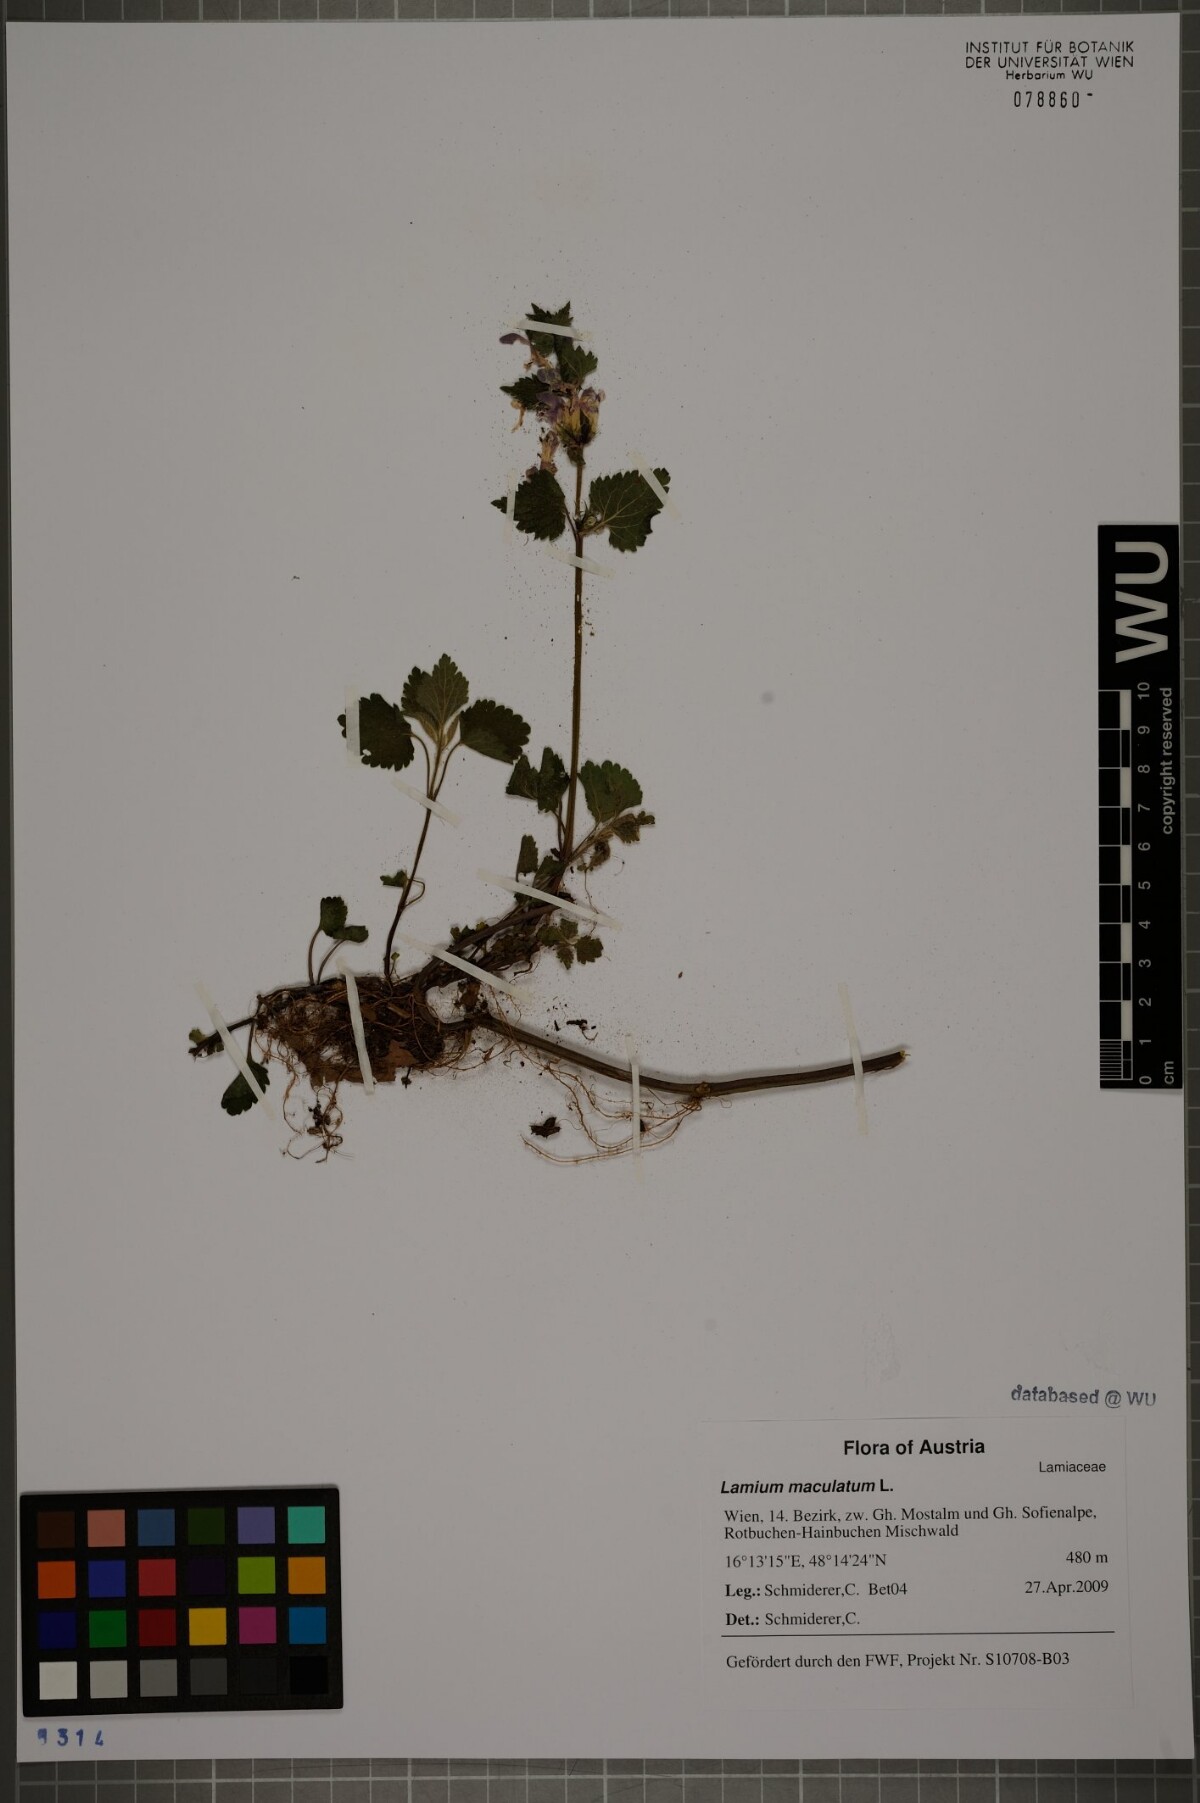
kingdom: Plantae
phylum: Tracheophyta
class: Magnoliopsida
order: Lamiales
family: Lamiaceae
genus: Lamium
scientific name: Lamium maculatum
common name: Spotted dead-nettle
